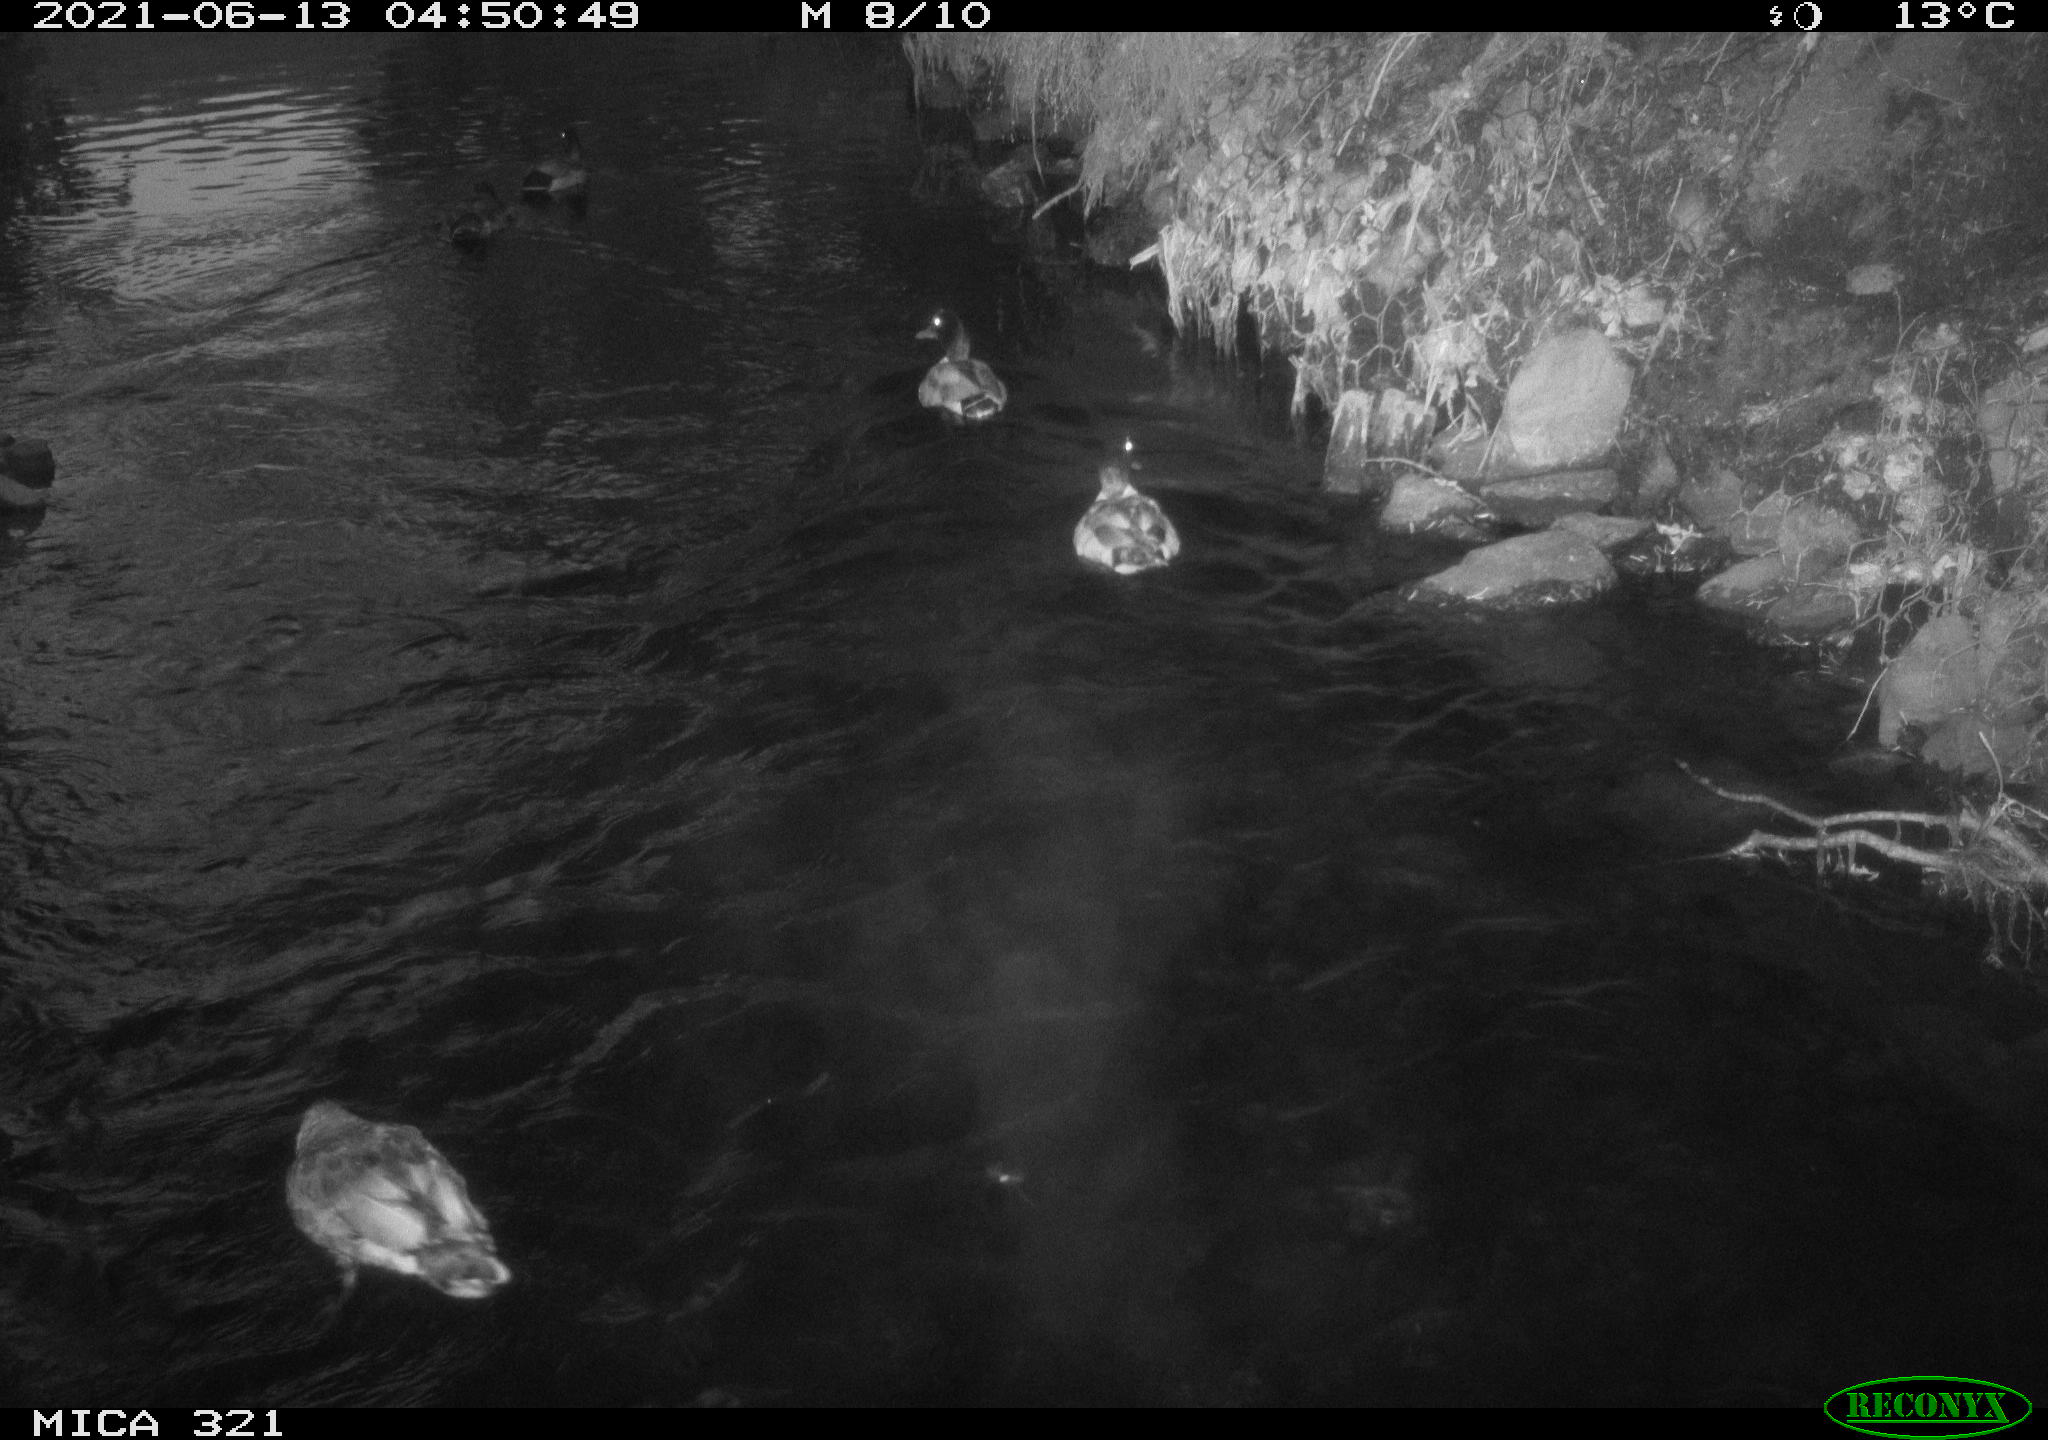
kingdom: Animalia
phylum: Chordata
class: Aves
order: Anseriformes
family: Anatidae
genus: Anas
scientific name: Anas platyrhynchos
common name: Mallard
